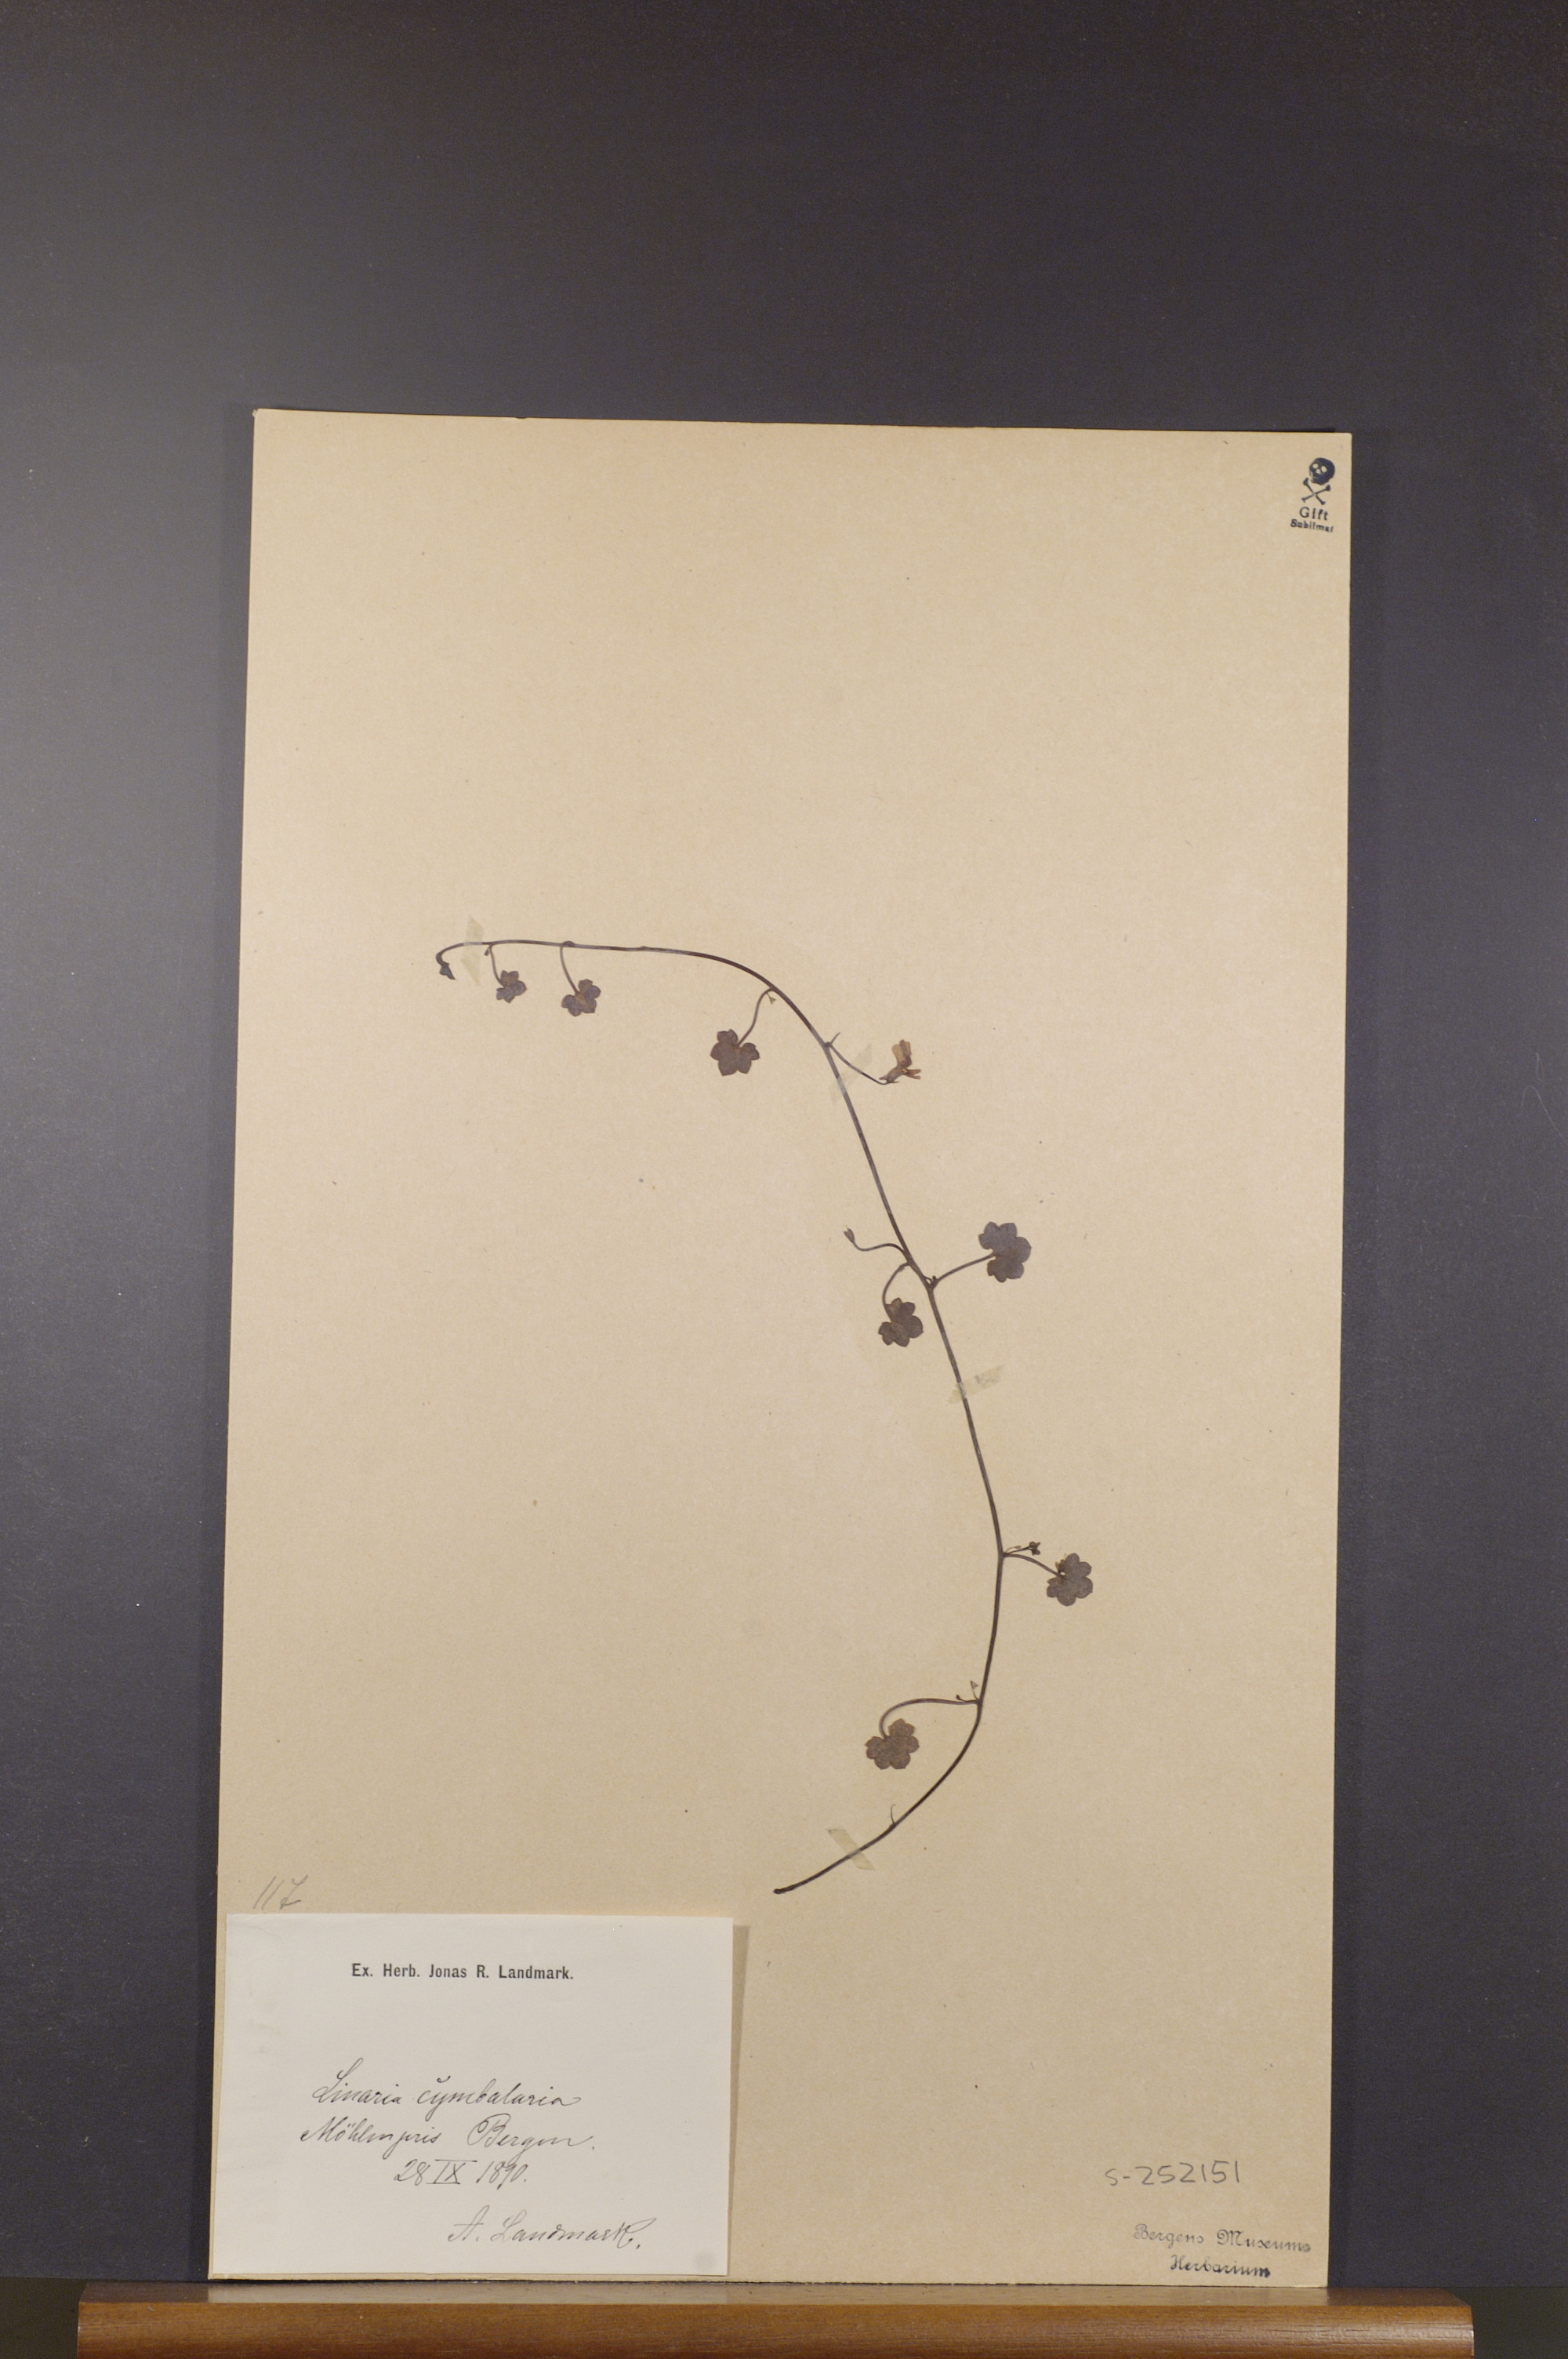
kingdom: Plantae
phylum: Tracheophyta
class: Magnoliopsida
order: Lamiales
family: Plantaginaceae
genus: Cymbalaria
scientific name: Cymbalaria muralis
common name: Ivy-leaved toadflax
